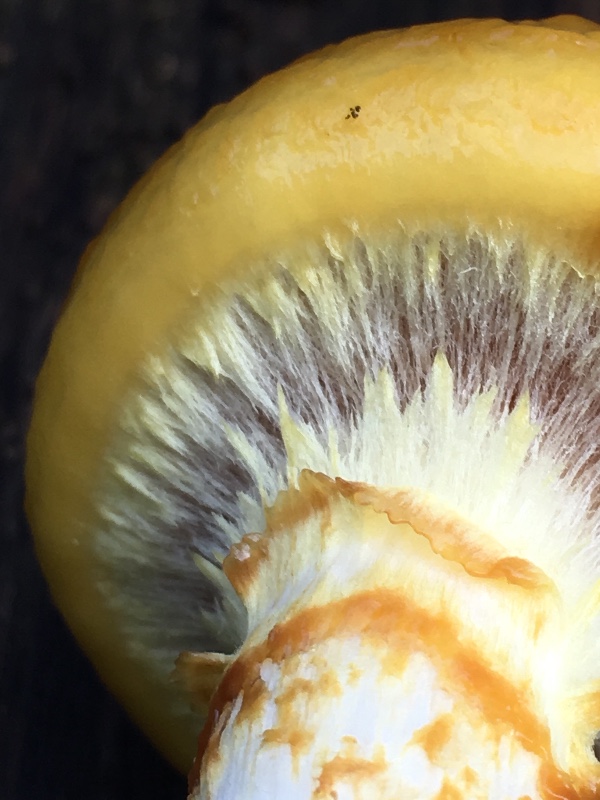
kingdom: Fungi
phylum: Basidiomycota
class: Agaricomycetes
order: Agaricales
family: Strophariaceae
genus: Pholiota
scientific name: Pholiota adiposa
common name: højtsiddende skælhat
